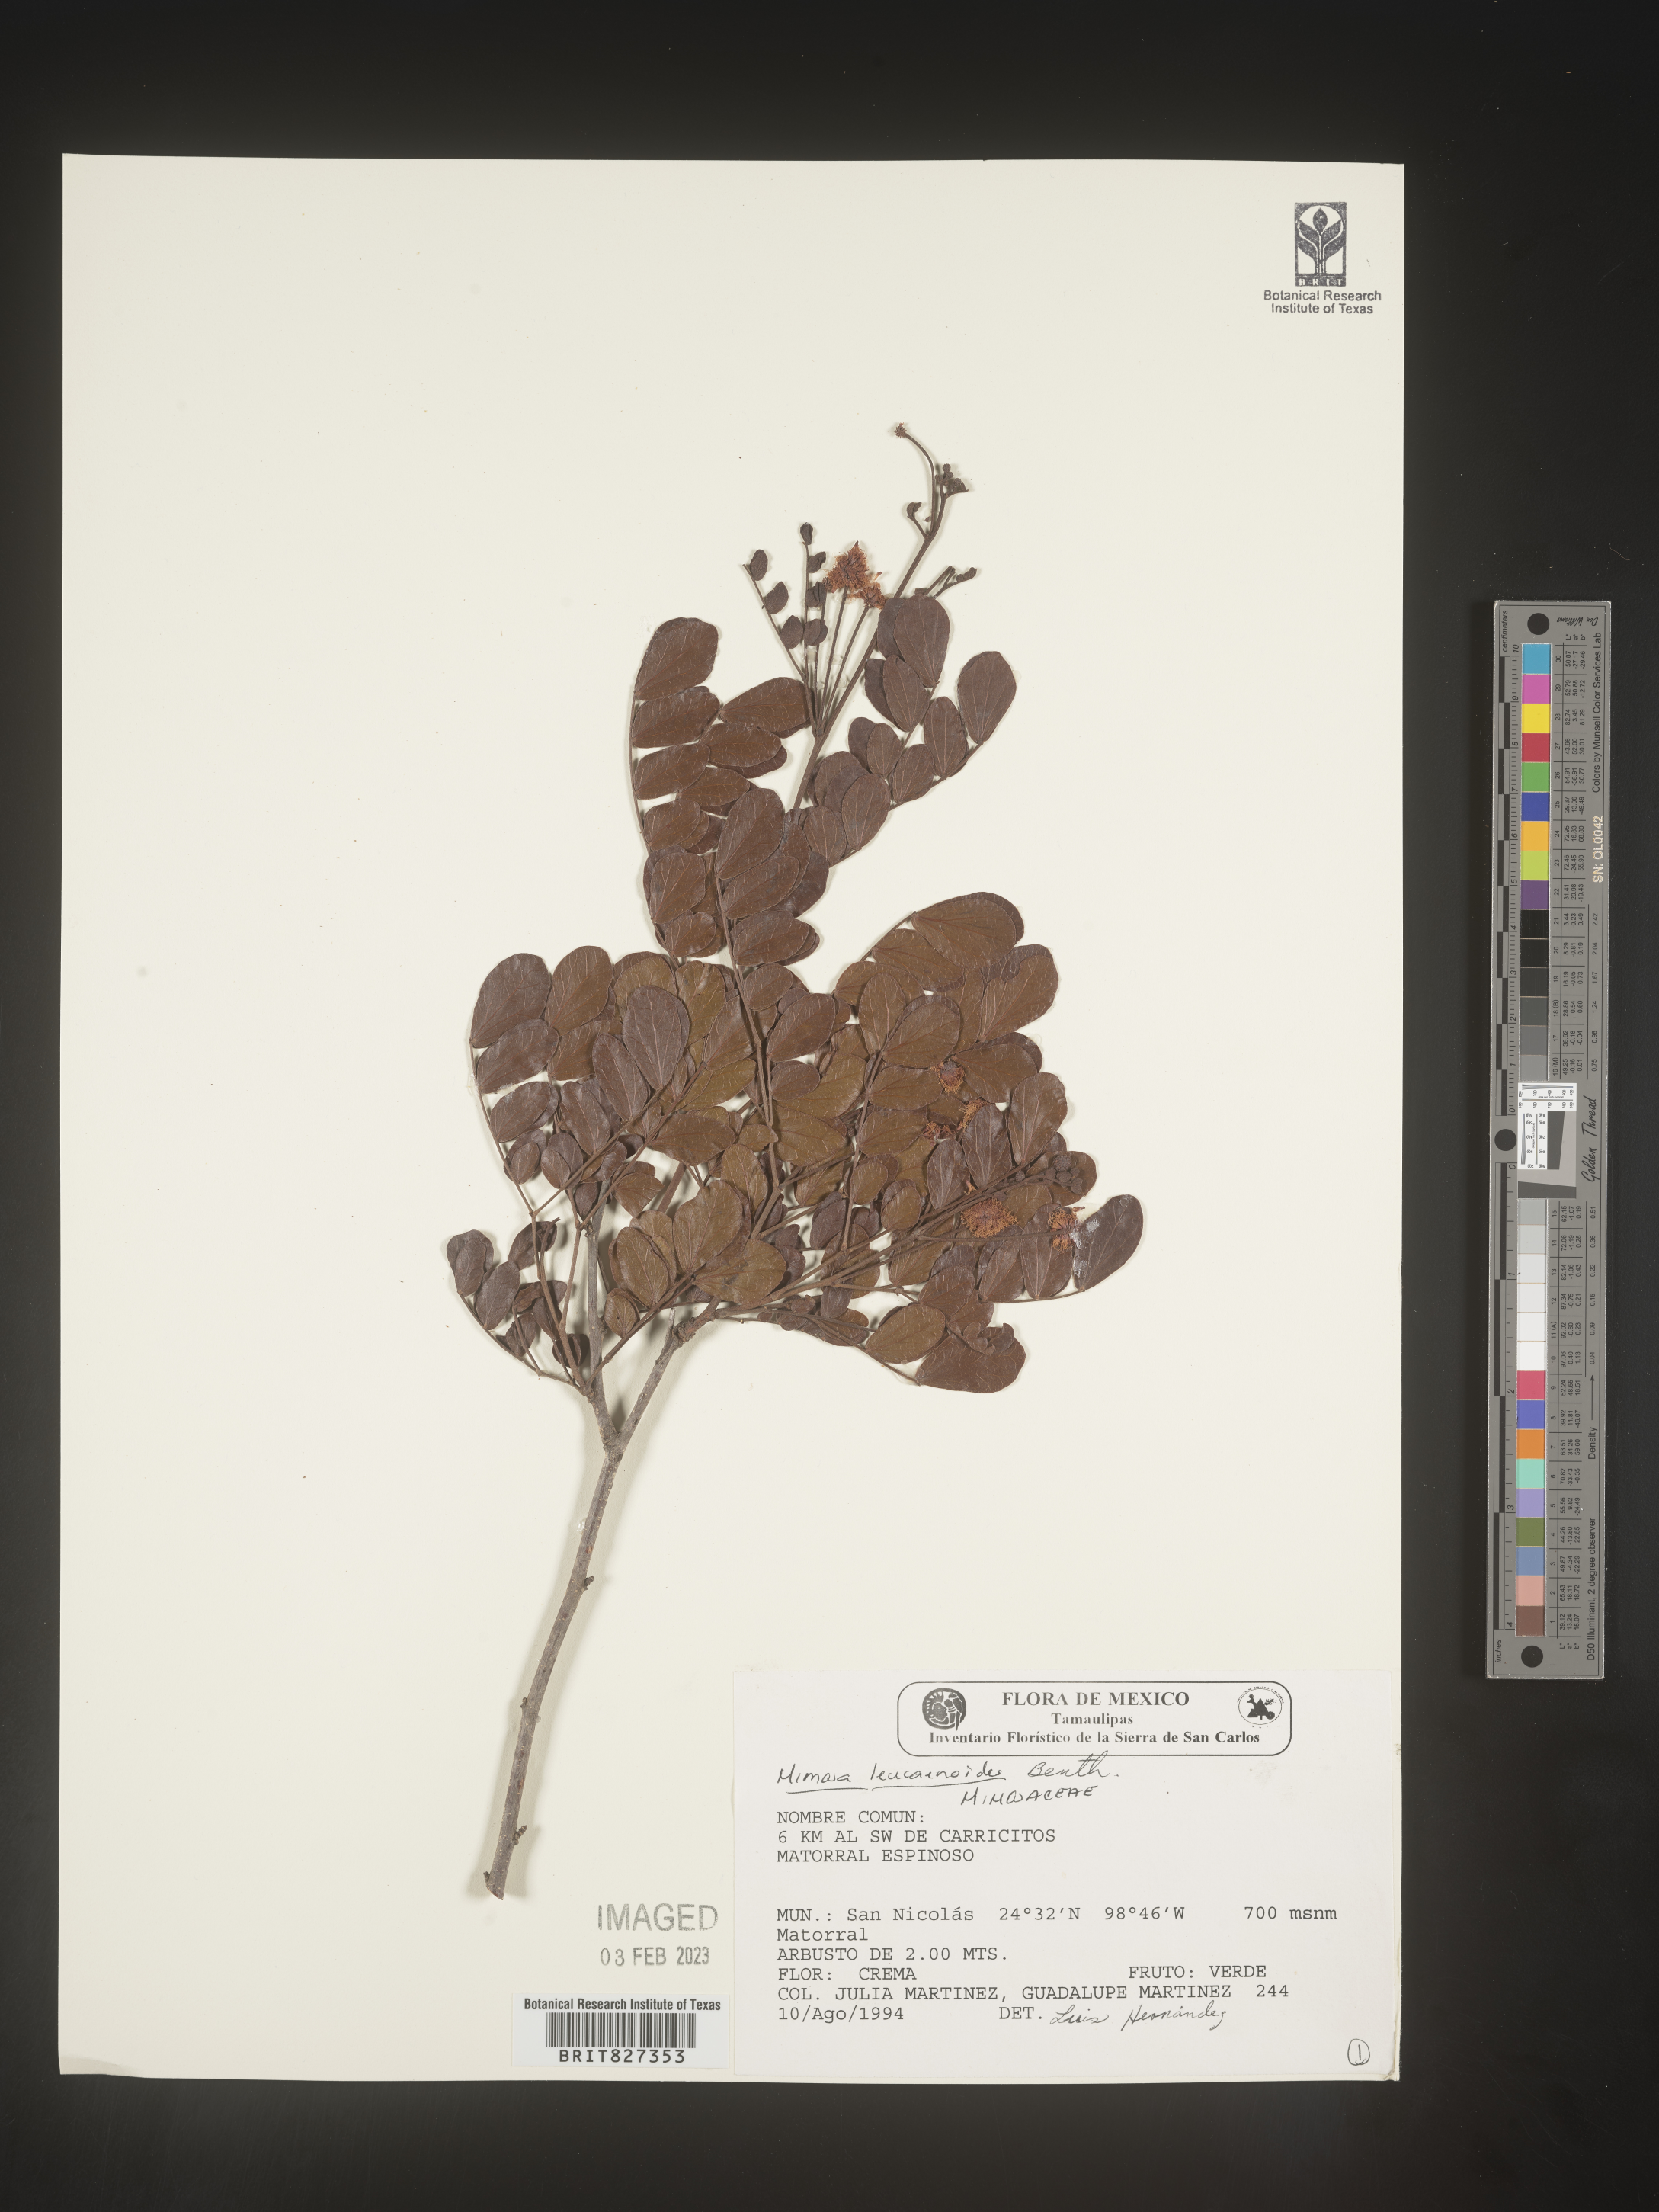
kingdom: Plantae
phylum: Tracheophyta
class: Magnoliopsida
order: Fabales
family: Fabaceae
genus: Mimosa
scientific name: Mimosa
